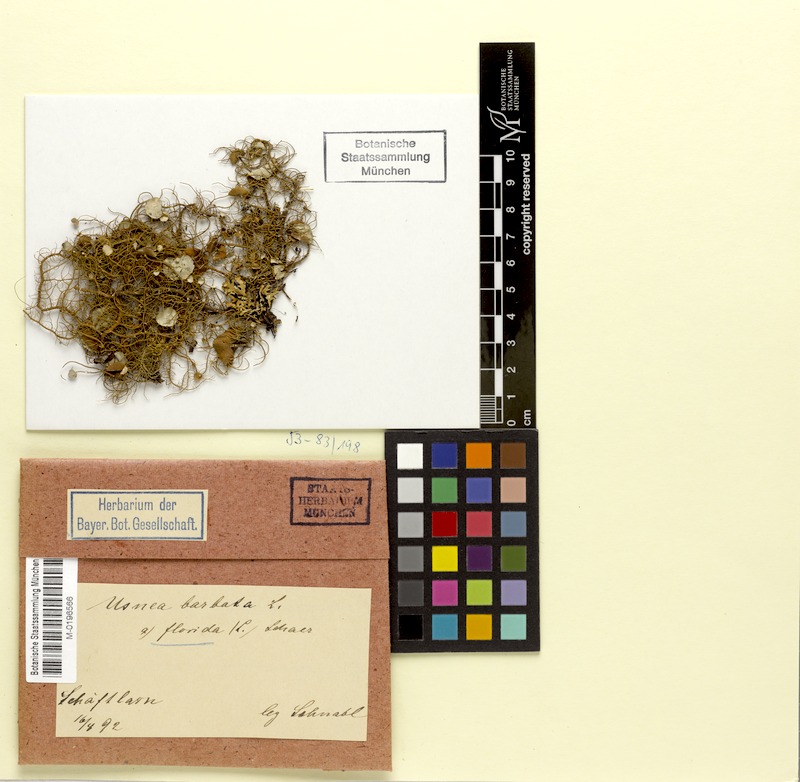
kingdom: Fungi
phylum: Ascomycota
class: Lecanoromycetes
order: Lecanorales
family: Parmeliaceae
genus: Usnea
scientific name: Usnea florida
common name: Witches' whiskers lichen
